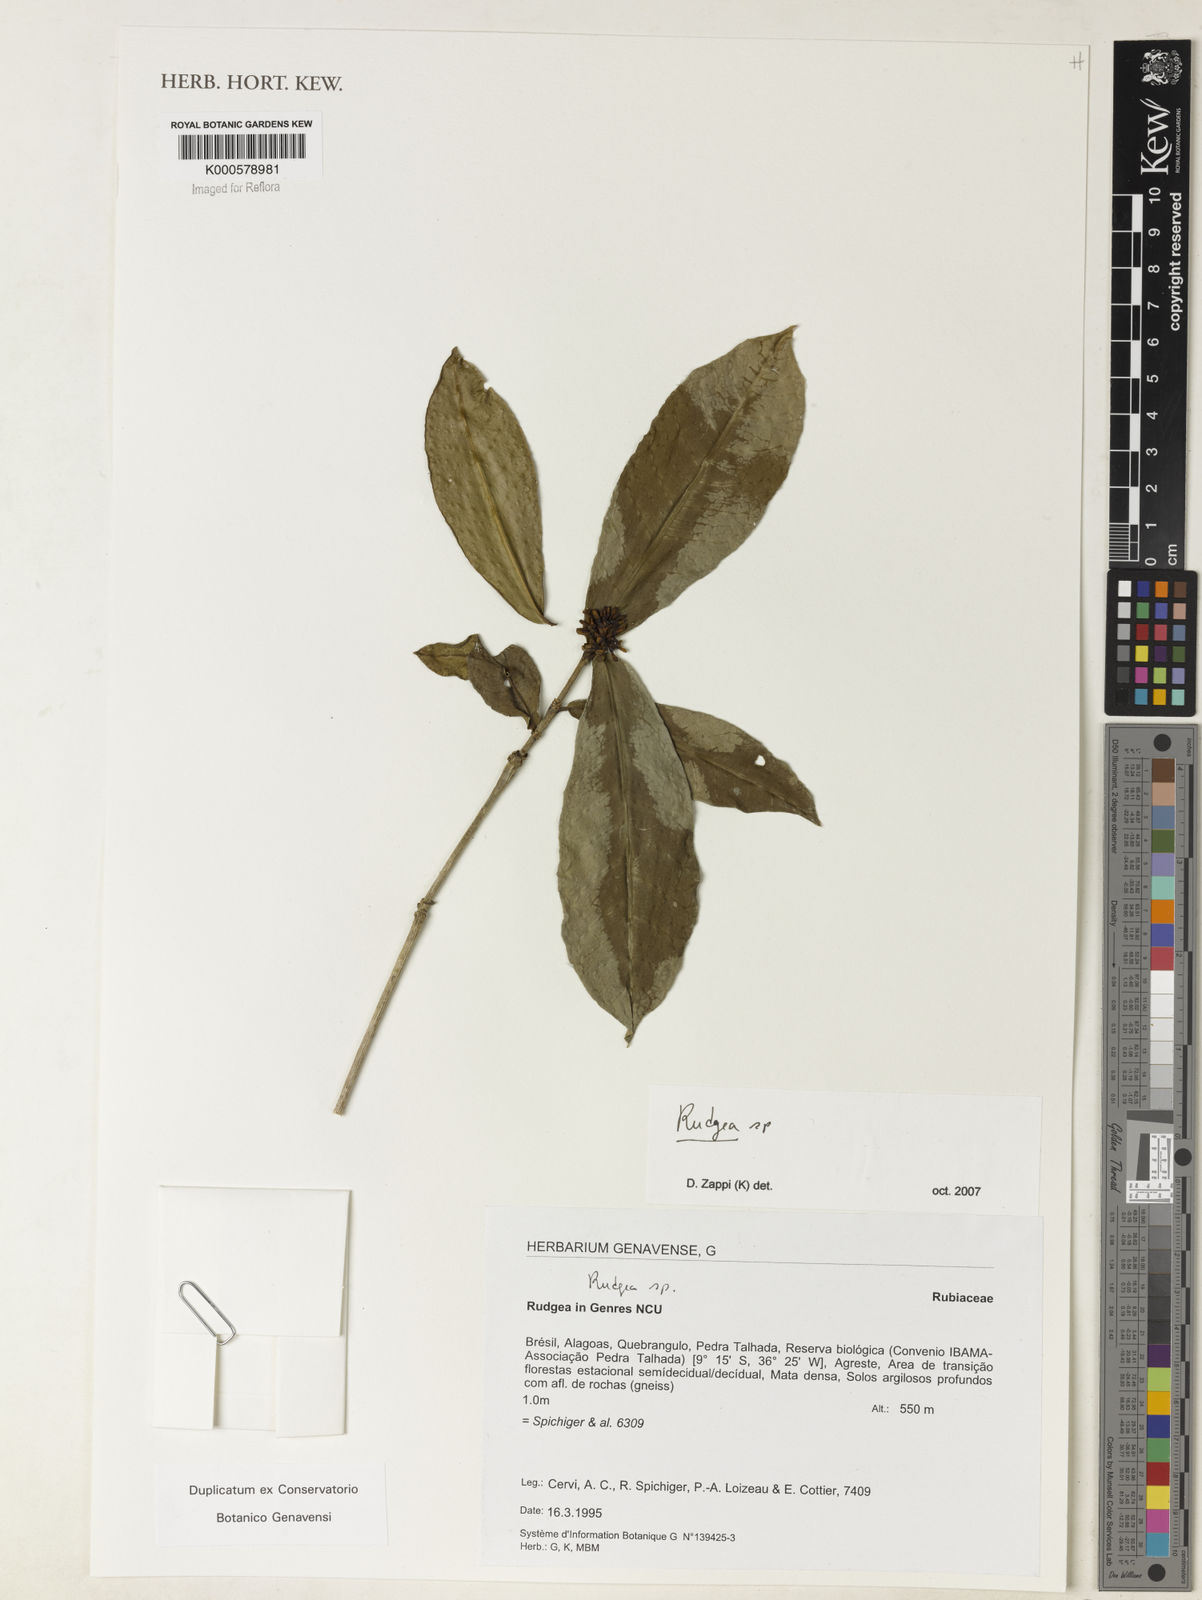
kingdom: Plantae
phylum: Tracheophyta
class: Magnoliopsida
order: Gentianales
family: Rubiaceae
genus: Rudgea
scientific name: Rudgea
